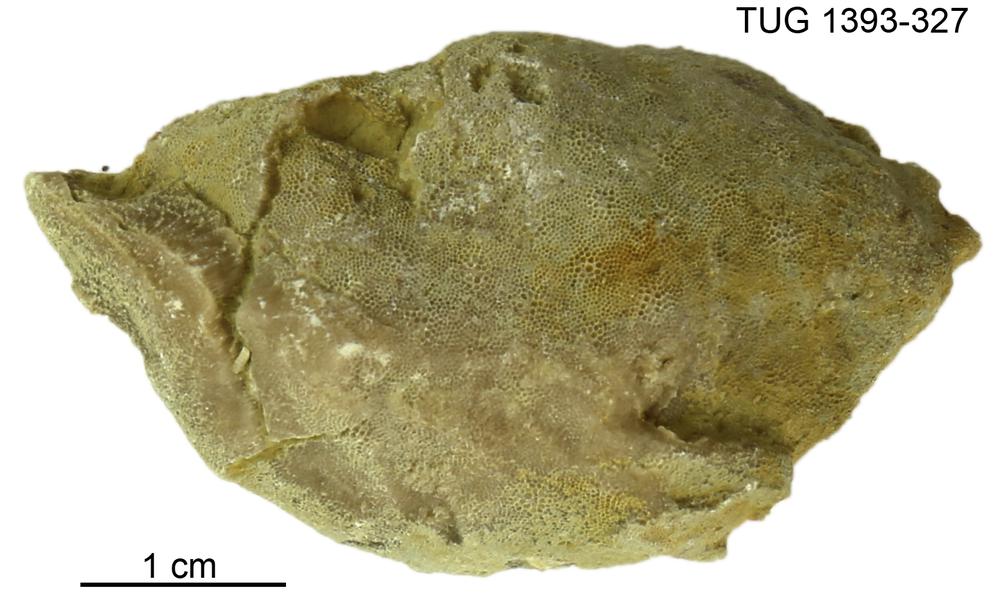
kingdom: Animalia
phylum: Bryozoa
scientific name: Bryozoa
